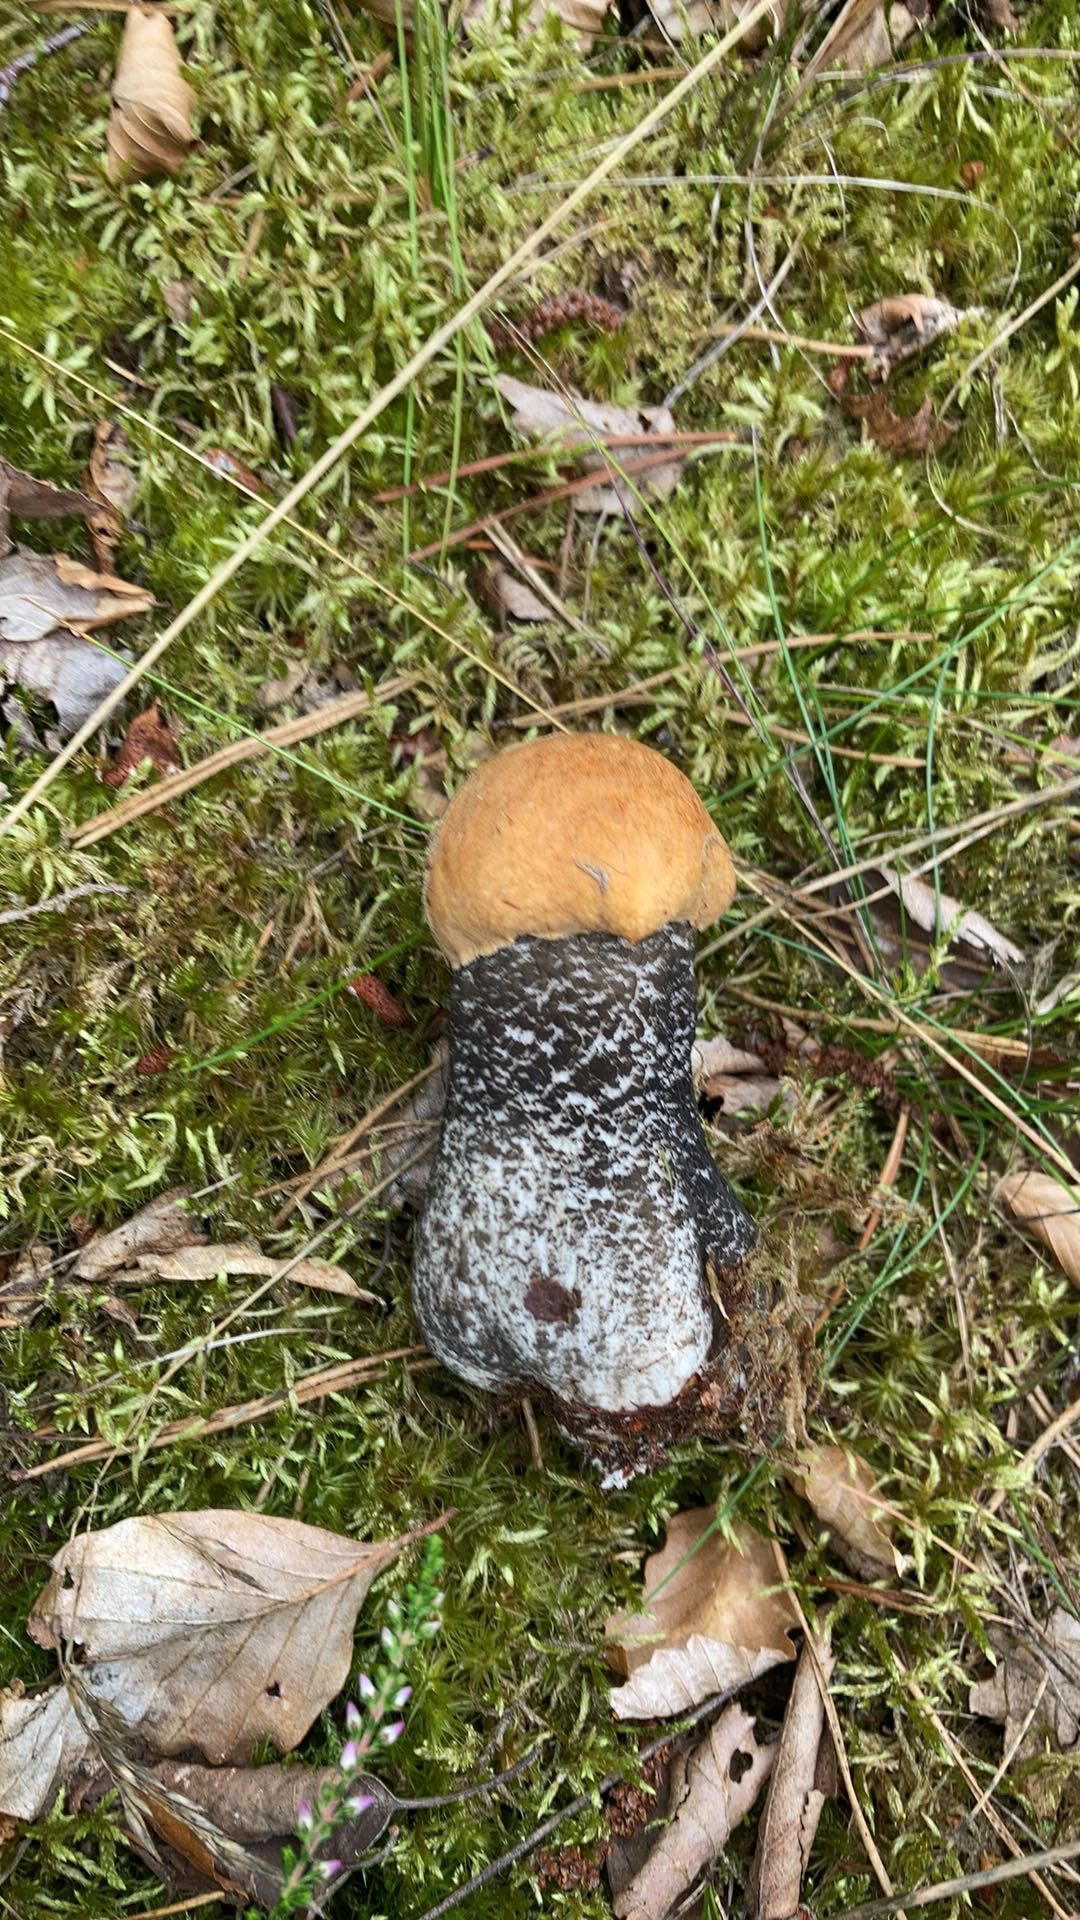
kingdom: Fungi
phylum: Basidiomycota
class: Agaricomycetes
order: Boletales
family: Boletaceae
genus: Leccinum
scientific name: Leccinum versipelle
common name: orange skælrørhat
